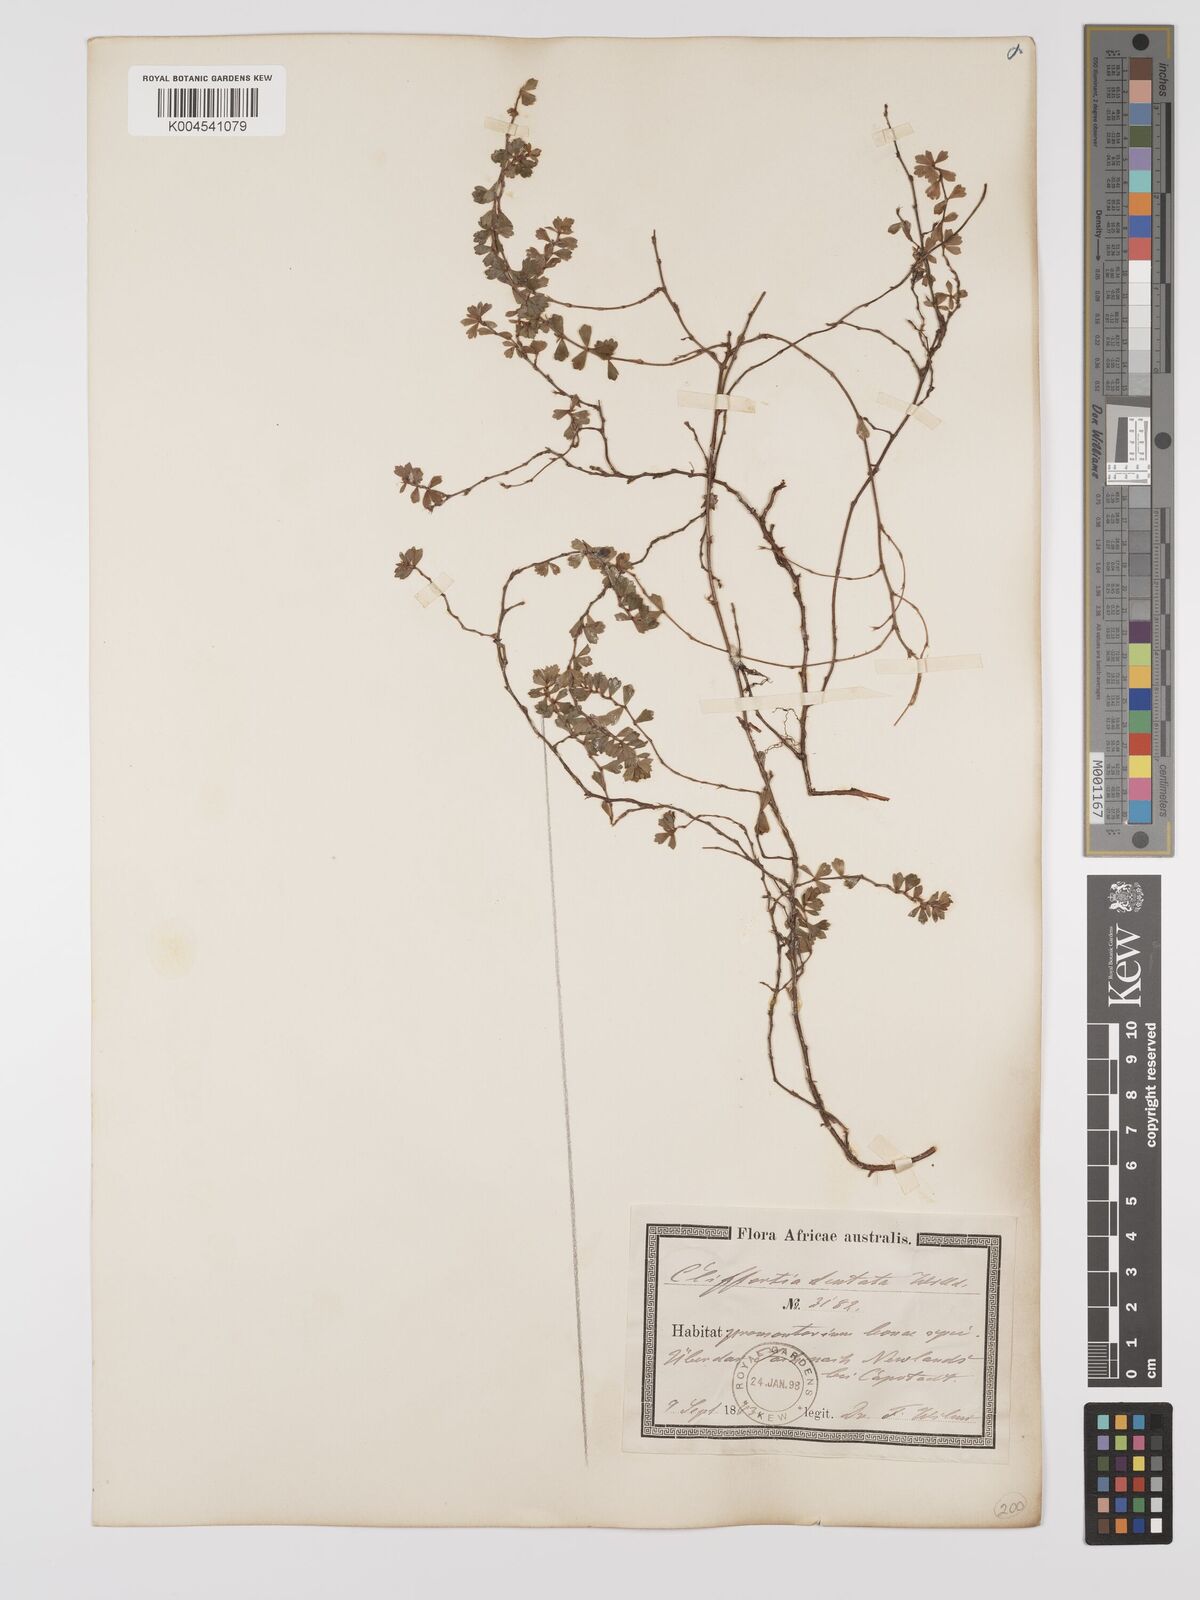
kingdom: Plantae
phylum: Tracheophyta
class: Magnoliopsida
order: Rosales
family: Rosaceae
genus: Cliffortia
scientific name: Cliffortia
